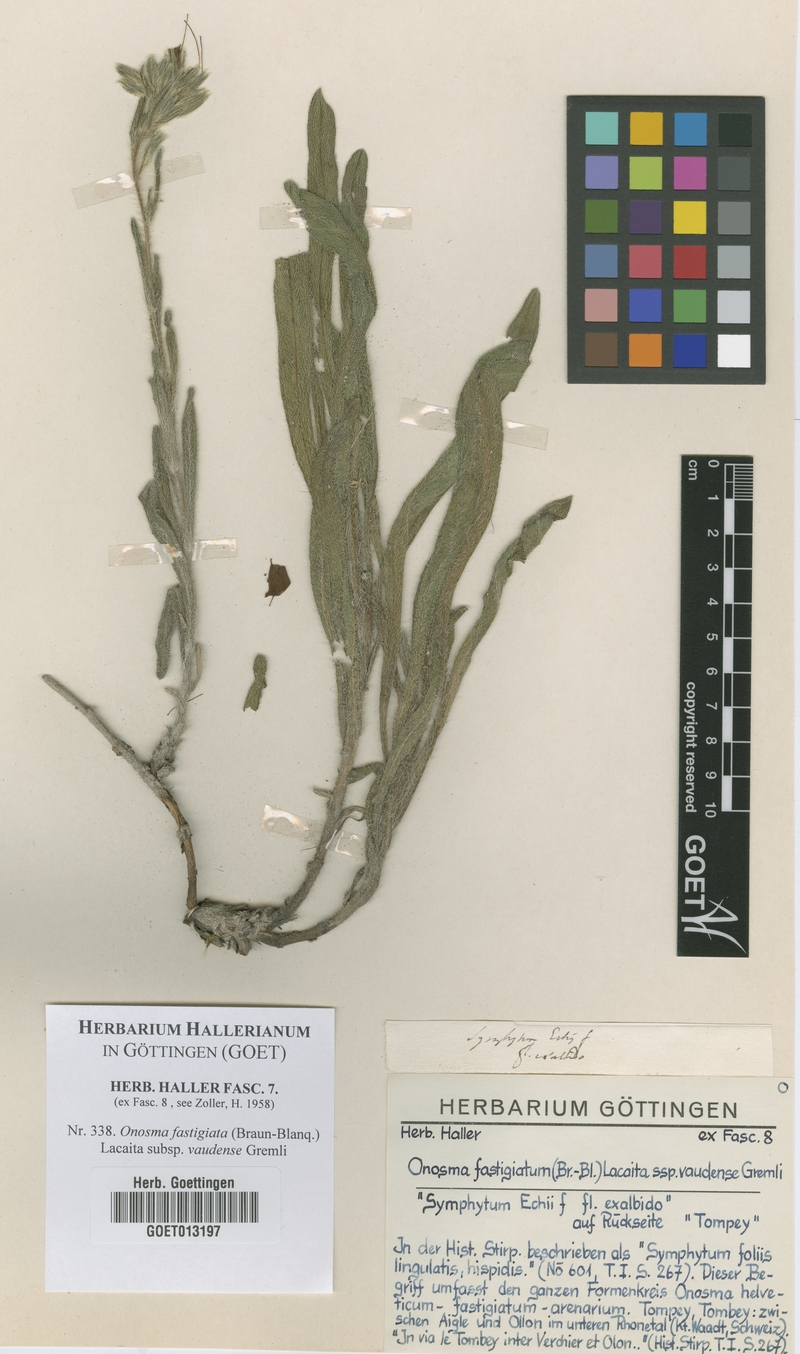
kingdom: Plantae
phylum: Tracheophyta
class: Magnoliopsida
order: Boraginales
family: Boraginaceae
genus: Onosma
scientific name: Onosma tricerosperma
